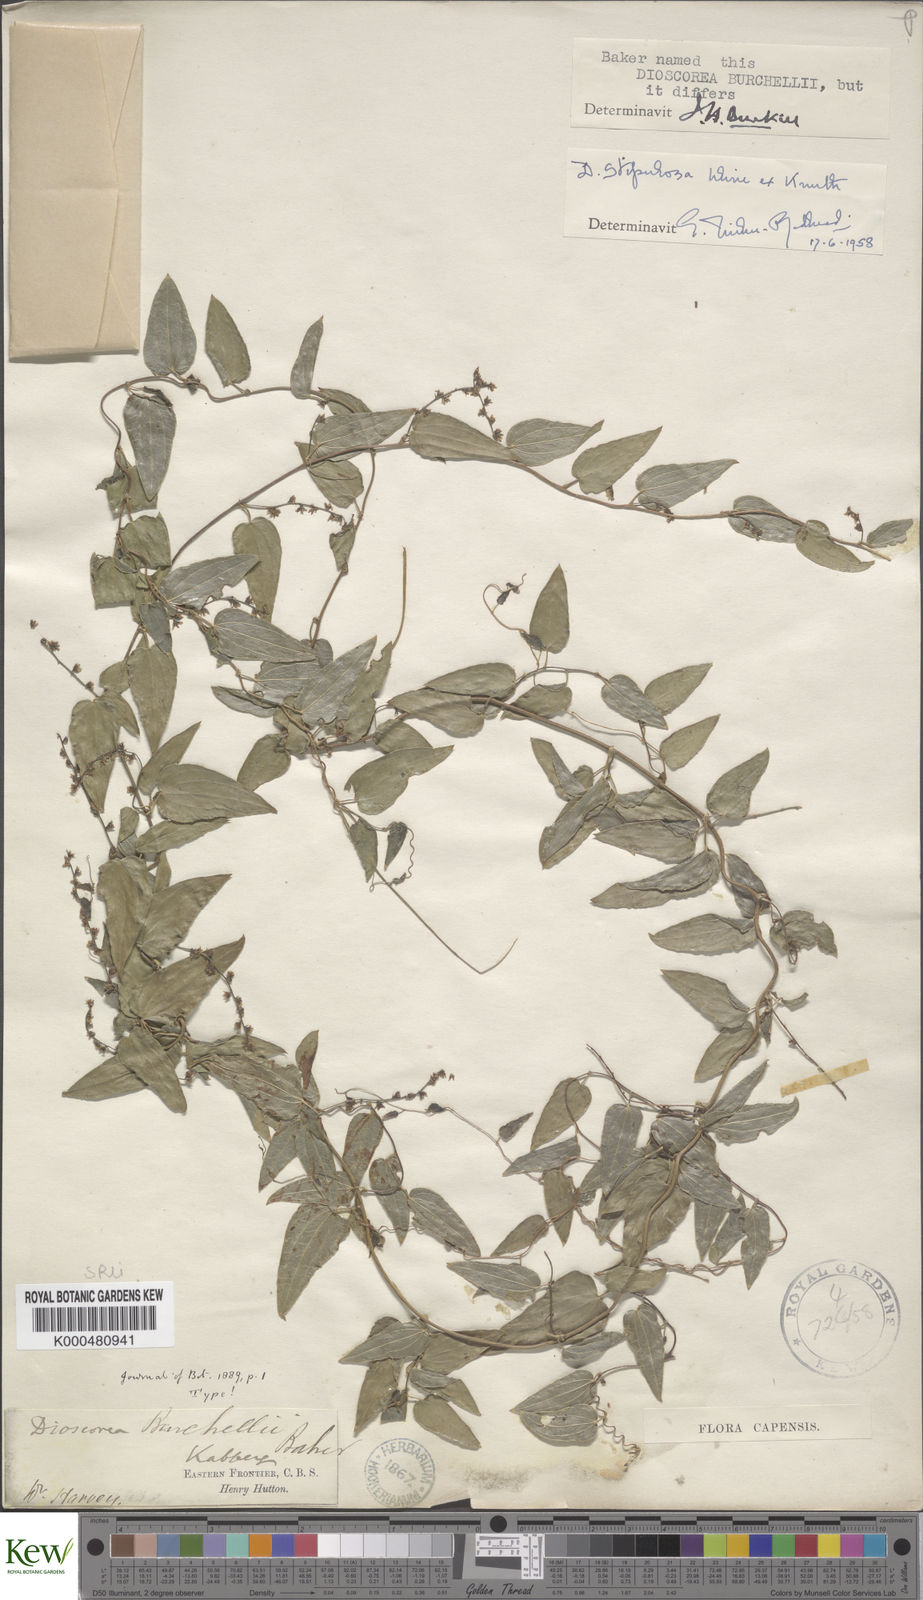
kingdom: Plantae
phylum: Tracheophyta
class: Liliopsida
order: Dioscoreales
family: Dioscoreaceae
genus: Dioscorea
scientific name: Dioscorea stipulosa
